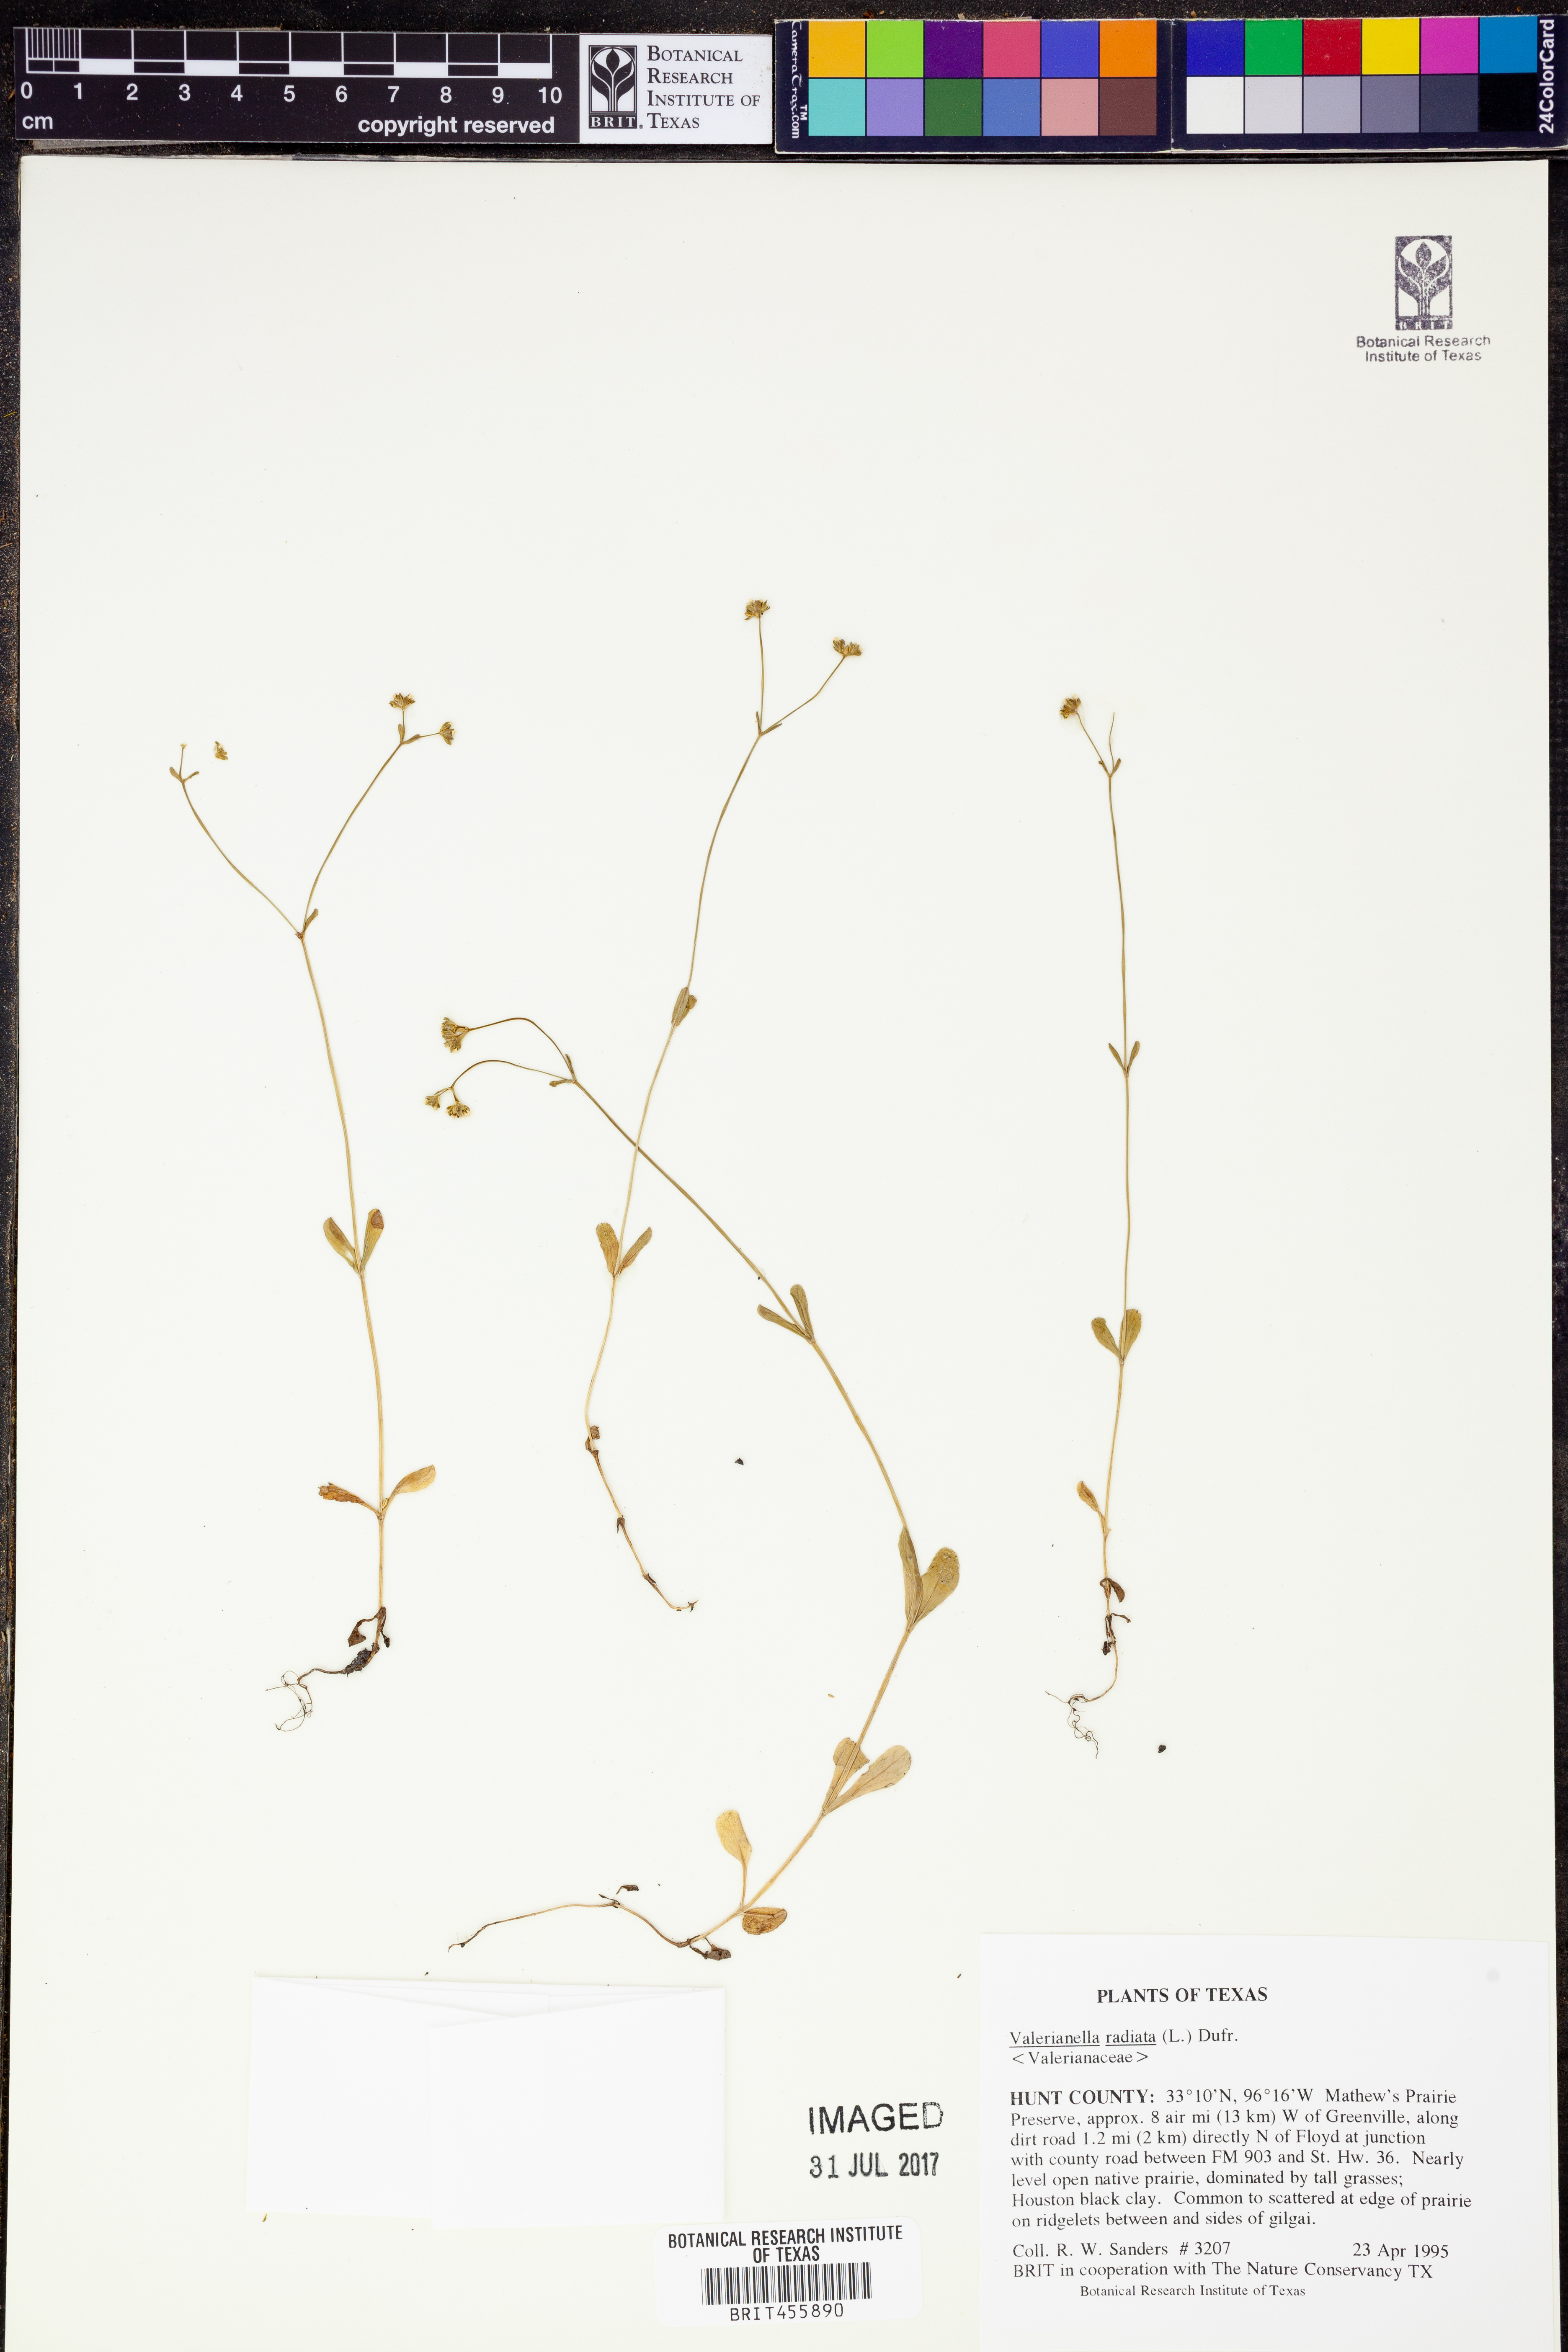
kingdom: Plantae
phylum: Tracheophyta
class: Magnoliopsida
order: Dipsacales
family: Caprifoliaceae
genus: Valerianella
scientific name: Valerianella radiata
